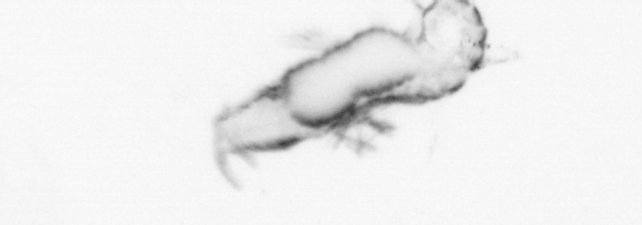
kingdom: Animalia
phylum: Annelida
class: Polychaeta
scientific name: Polychaeta
